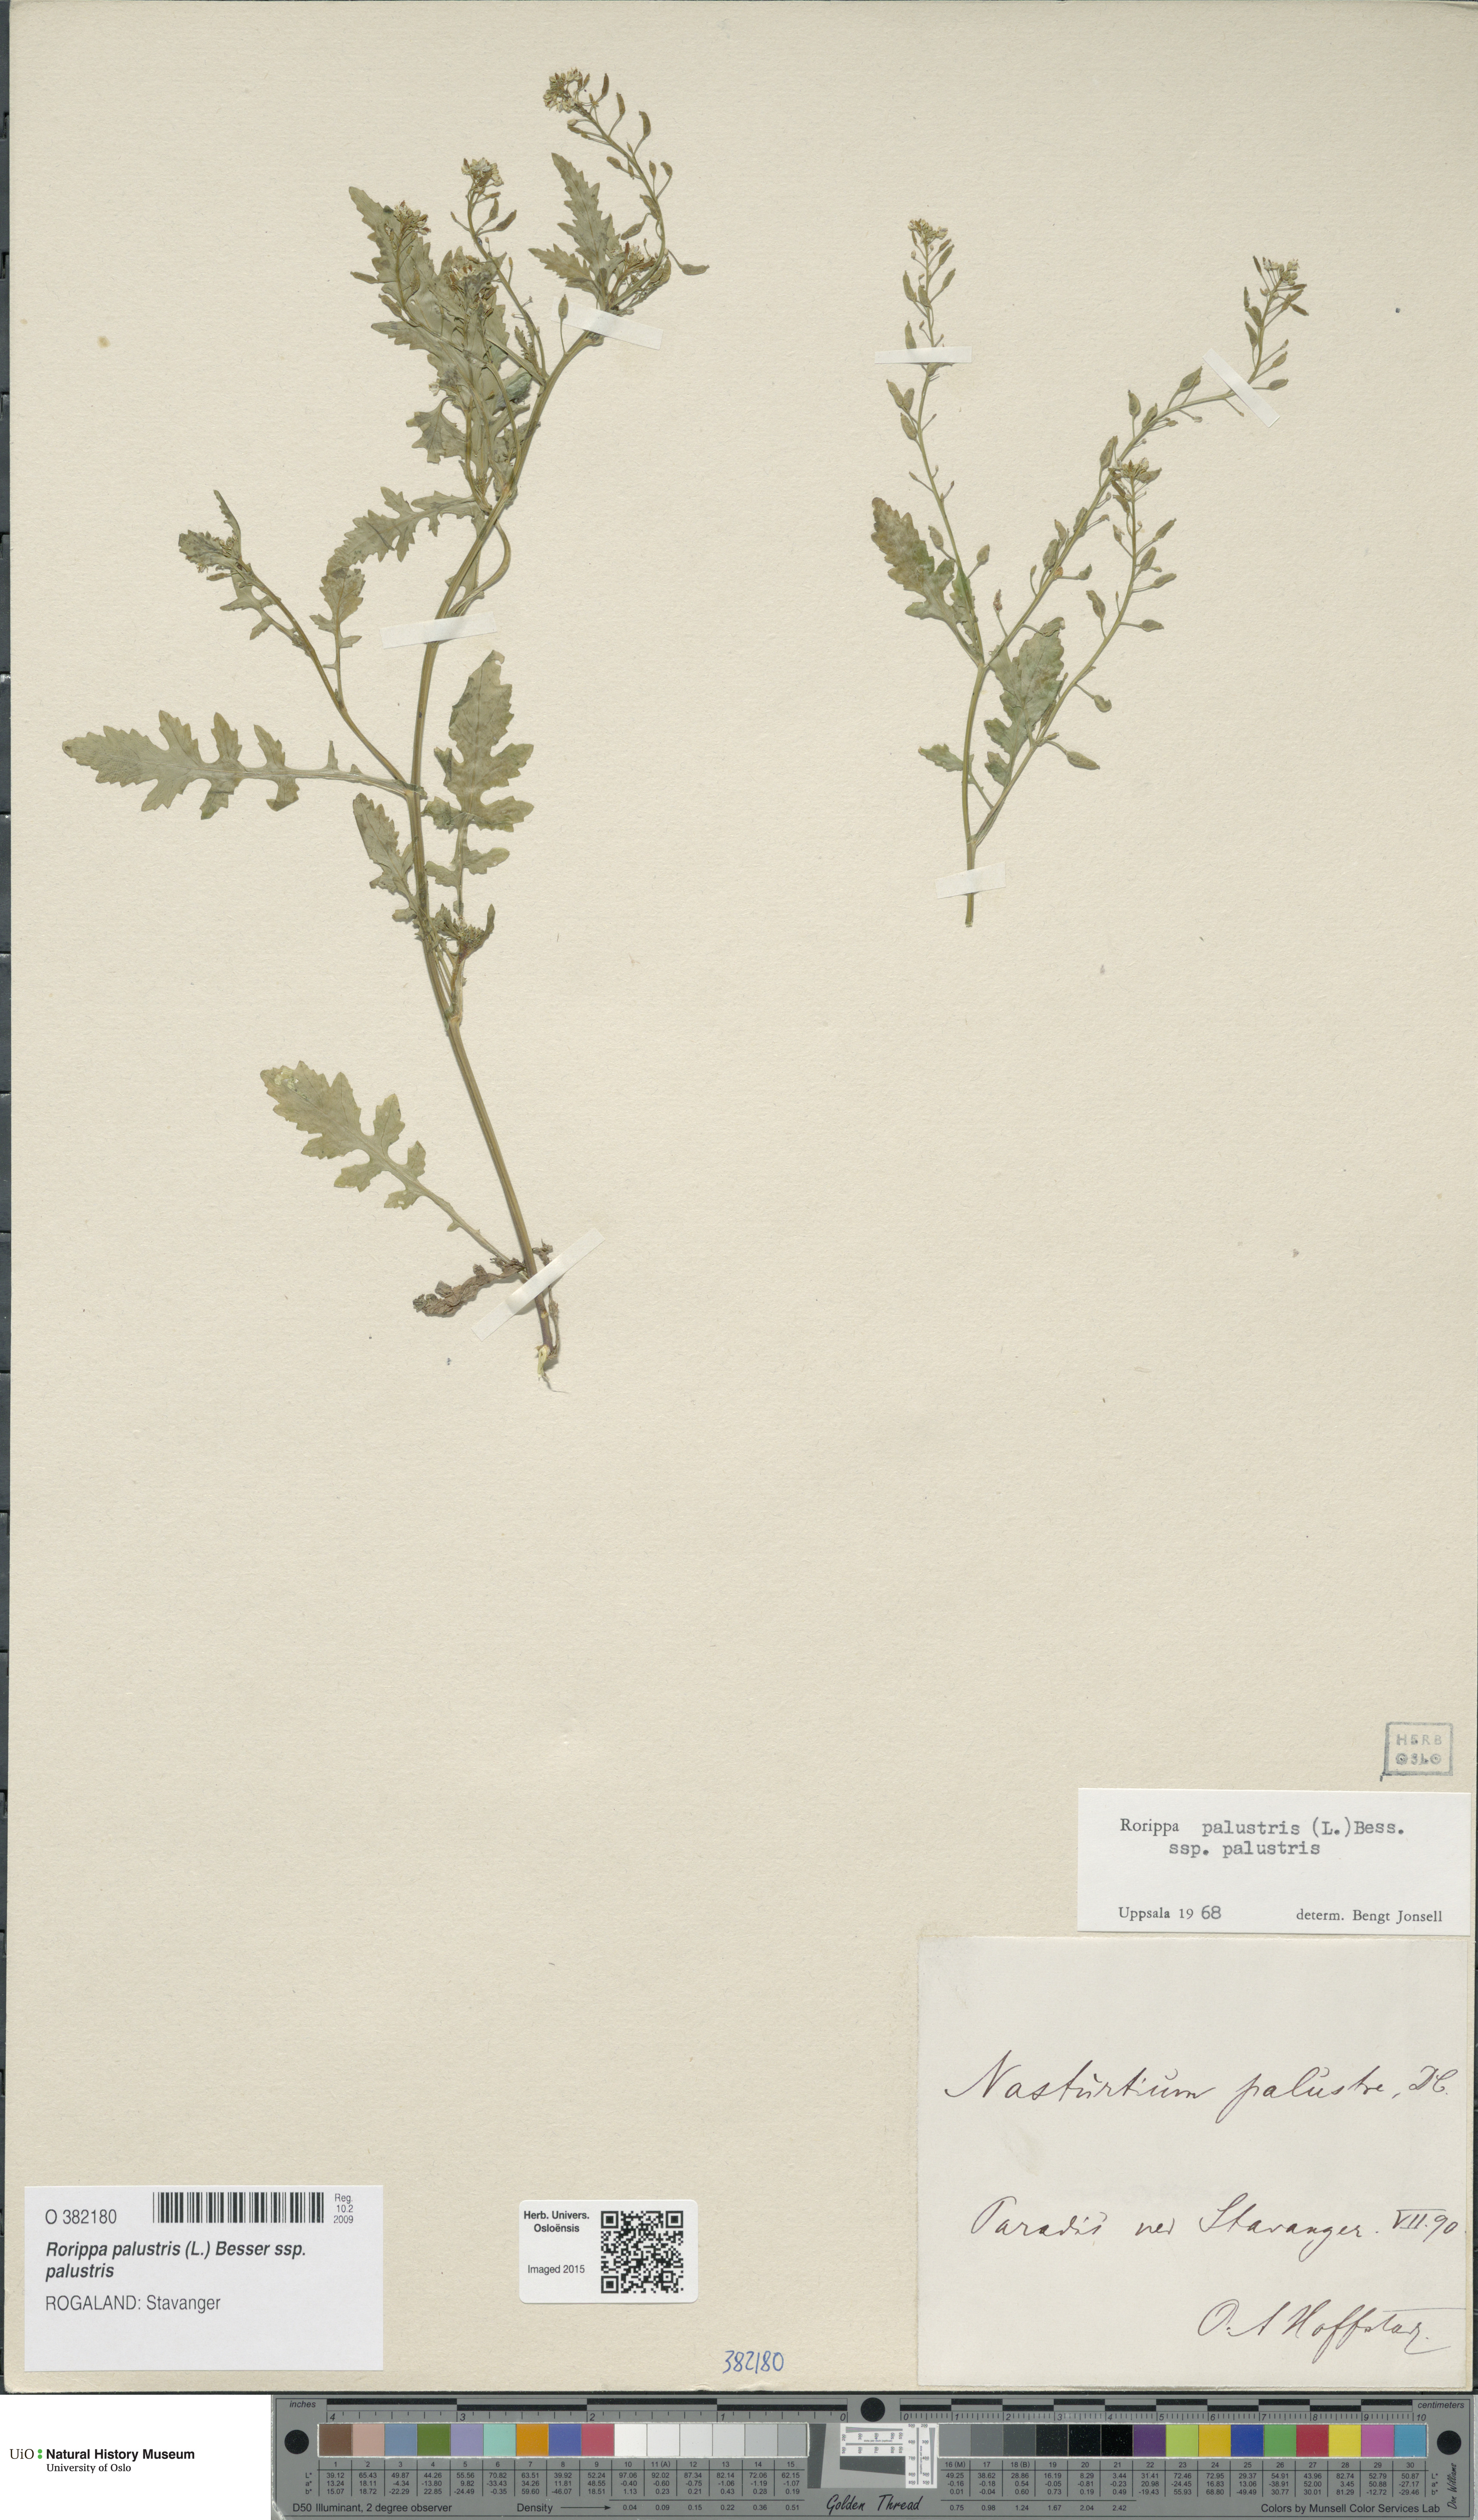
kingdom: Plantae
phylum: Tracheophyta
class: Magnoliopsida
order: Brassicales
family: Brassicaceae
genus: Rorippa
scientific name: Rorippa palustris
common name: Marsh yellow-cress
